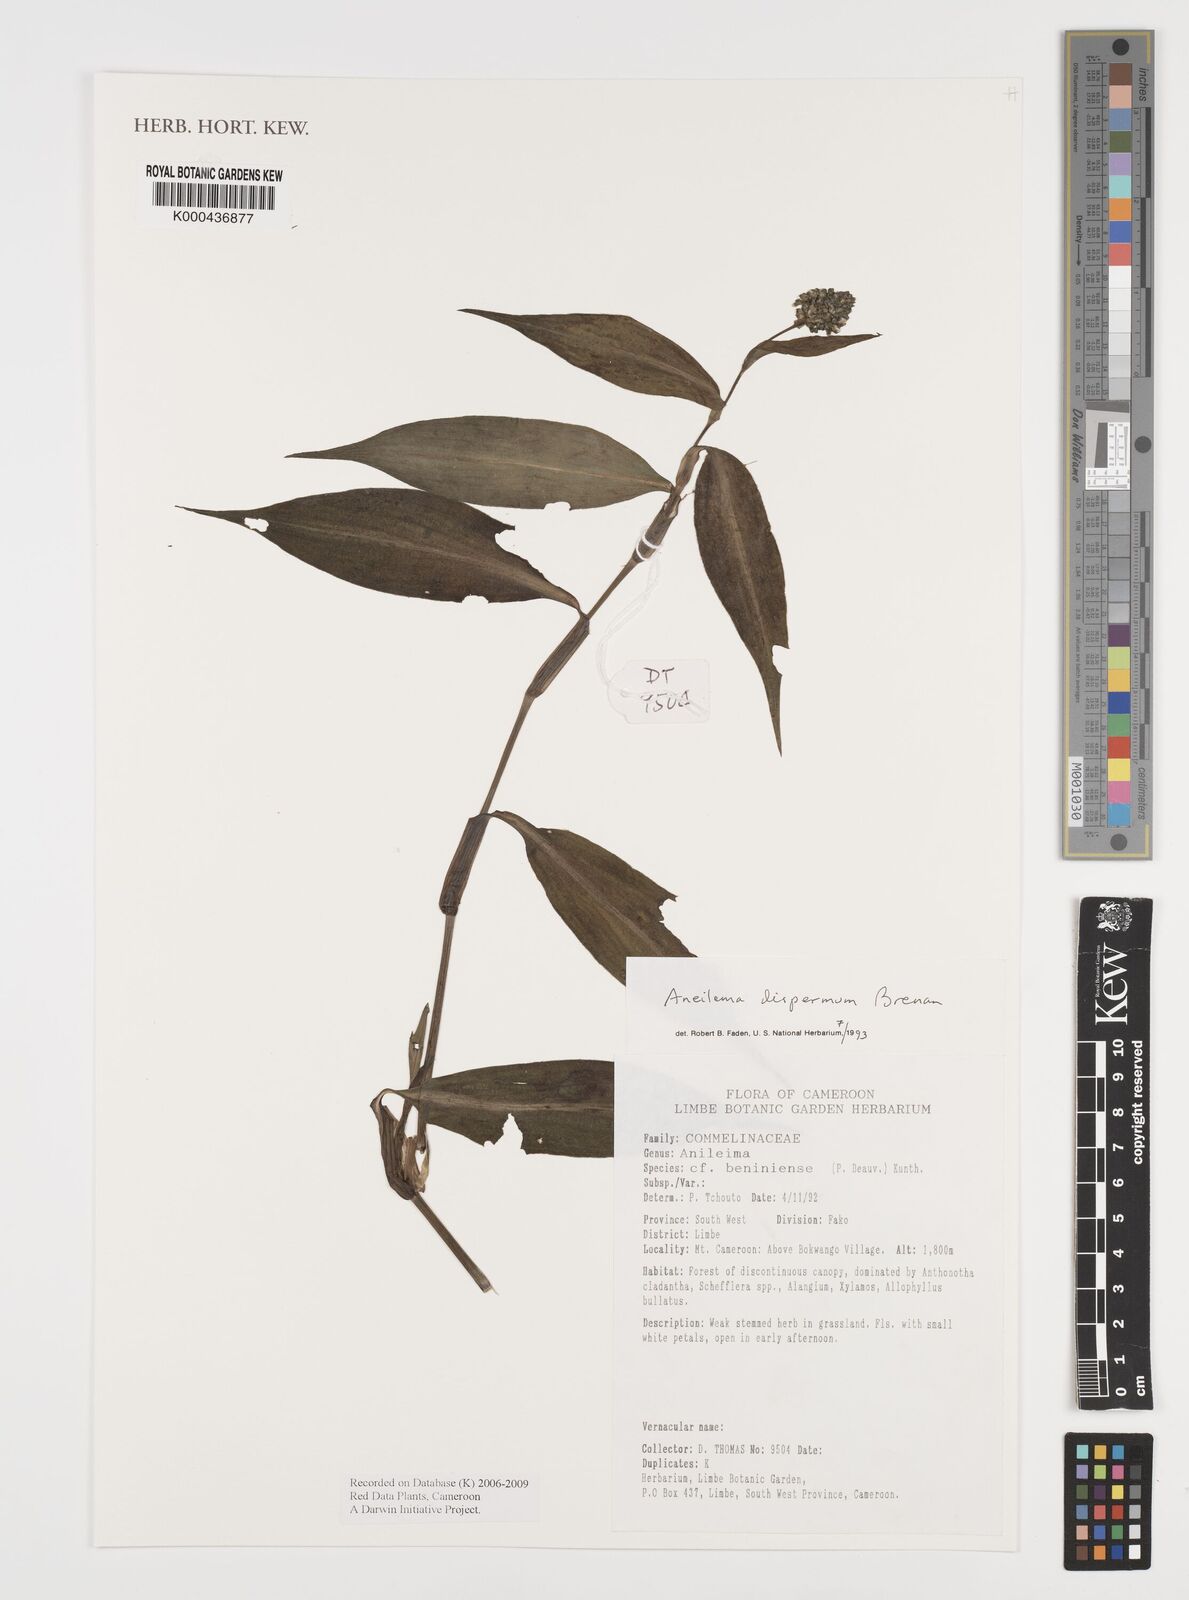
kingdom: Plantae
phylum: Tracheophyta
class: Liliopsida
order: Commelinales
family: Commelinaceae
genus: Aneilema
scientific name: Aneilema dispermum
